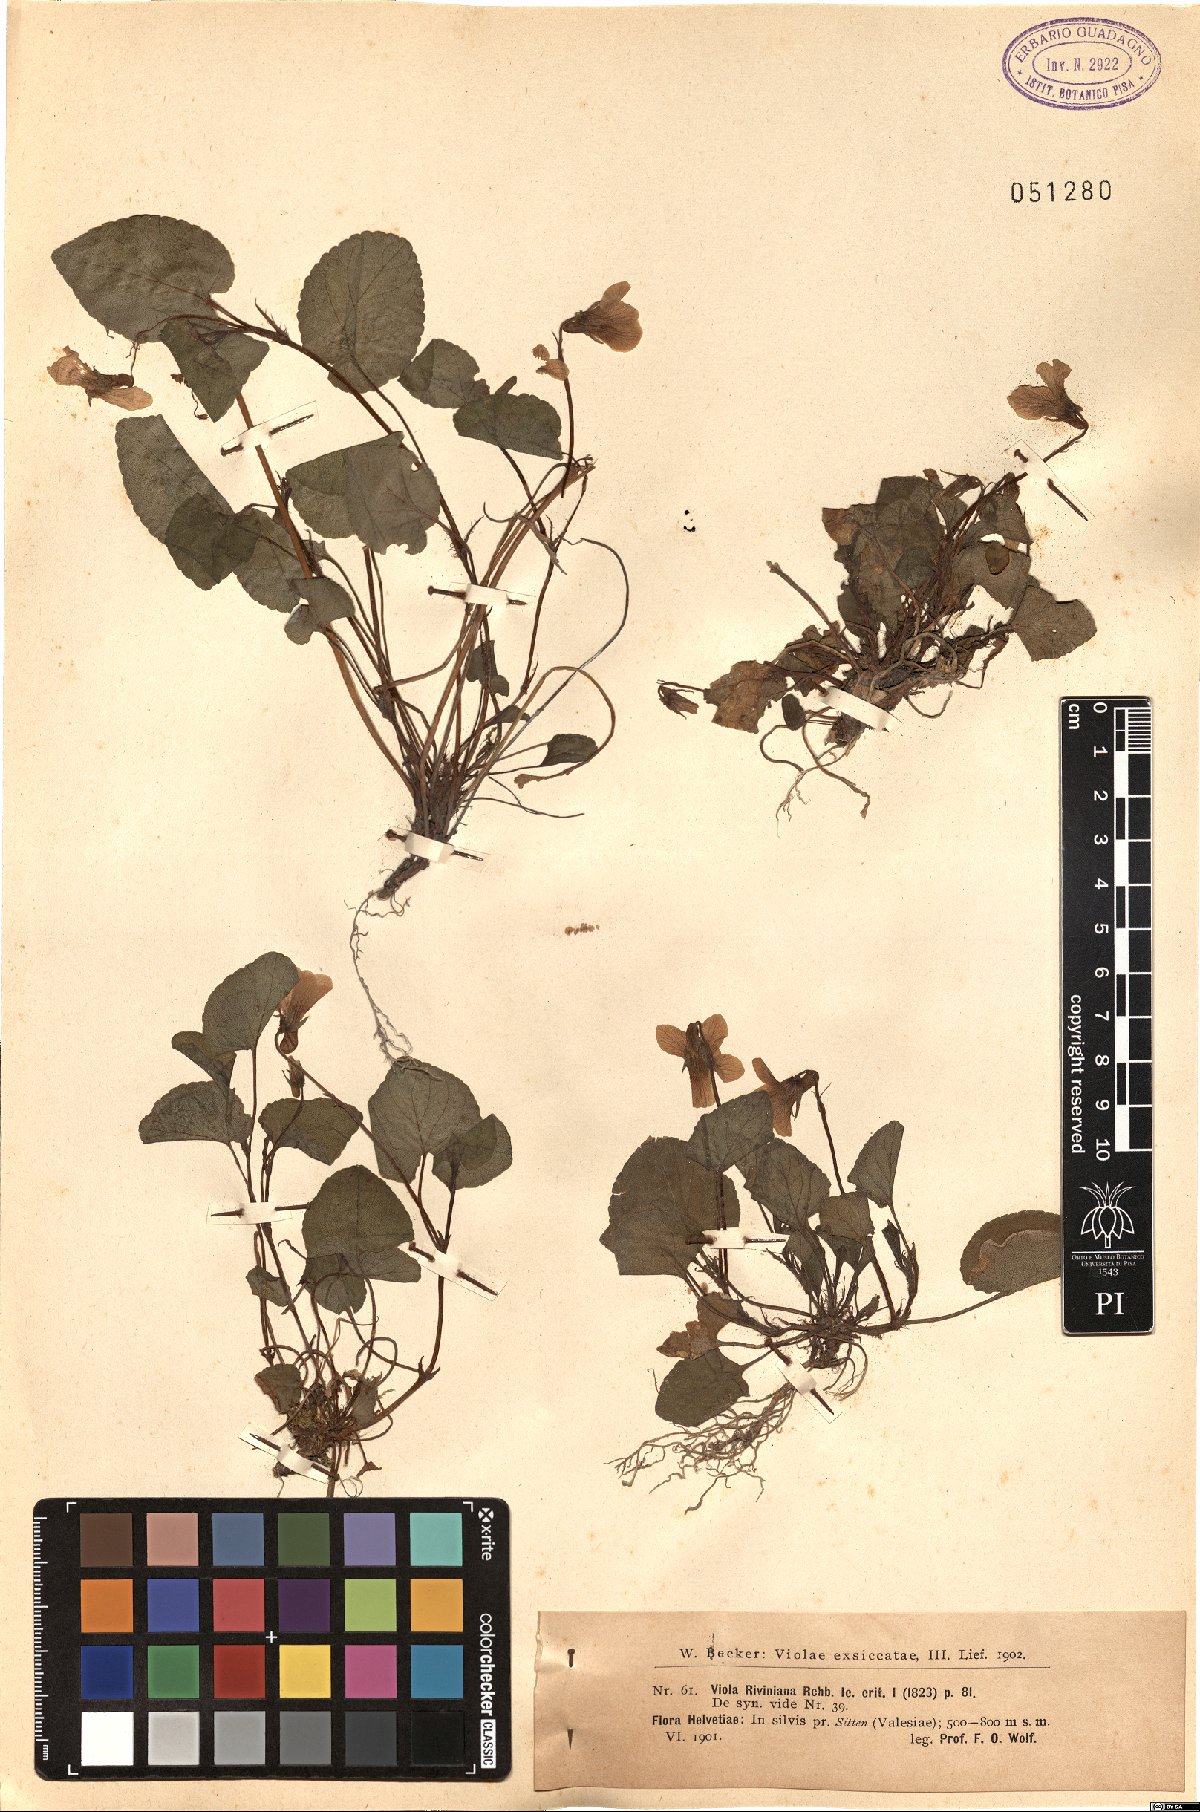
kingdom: Plantae
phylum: Tracheophyta
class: Magnoliopsida
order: Malpighiales
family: Violaceae
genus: Viola
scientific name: Viola riviniana
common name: Common dog-violet
